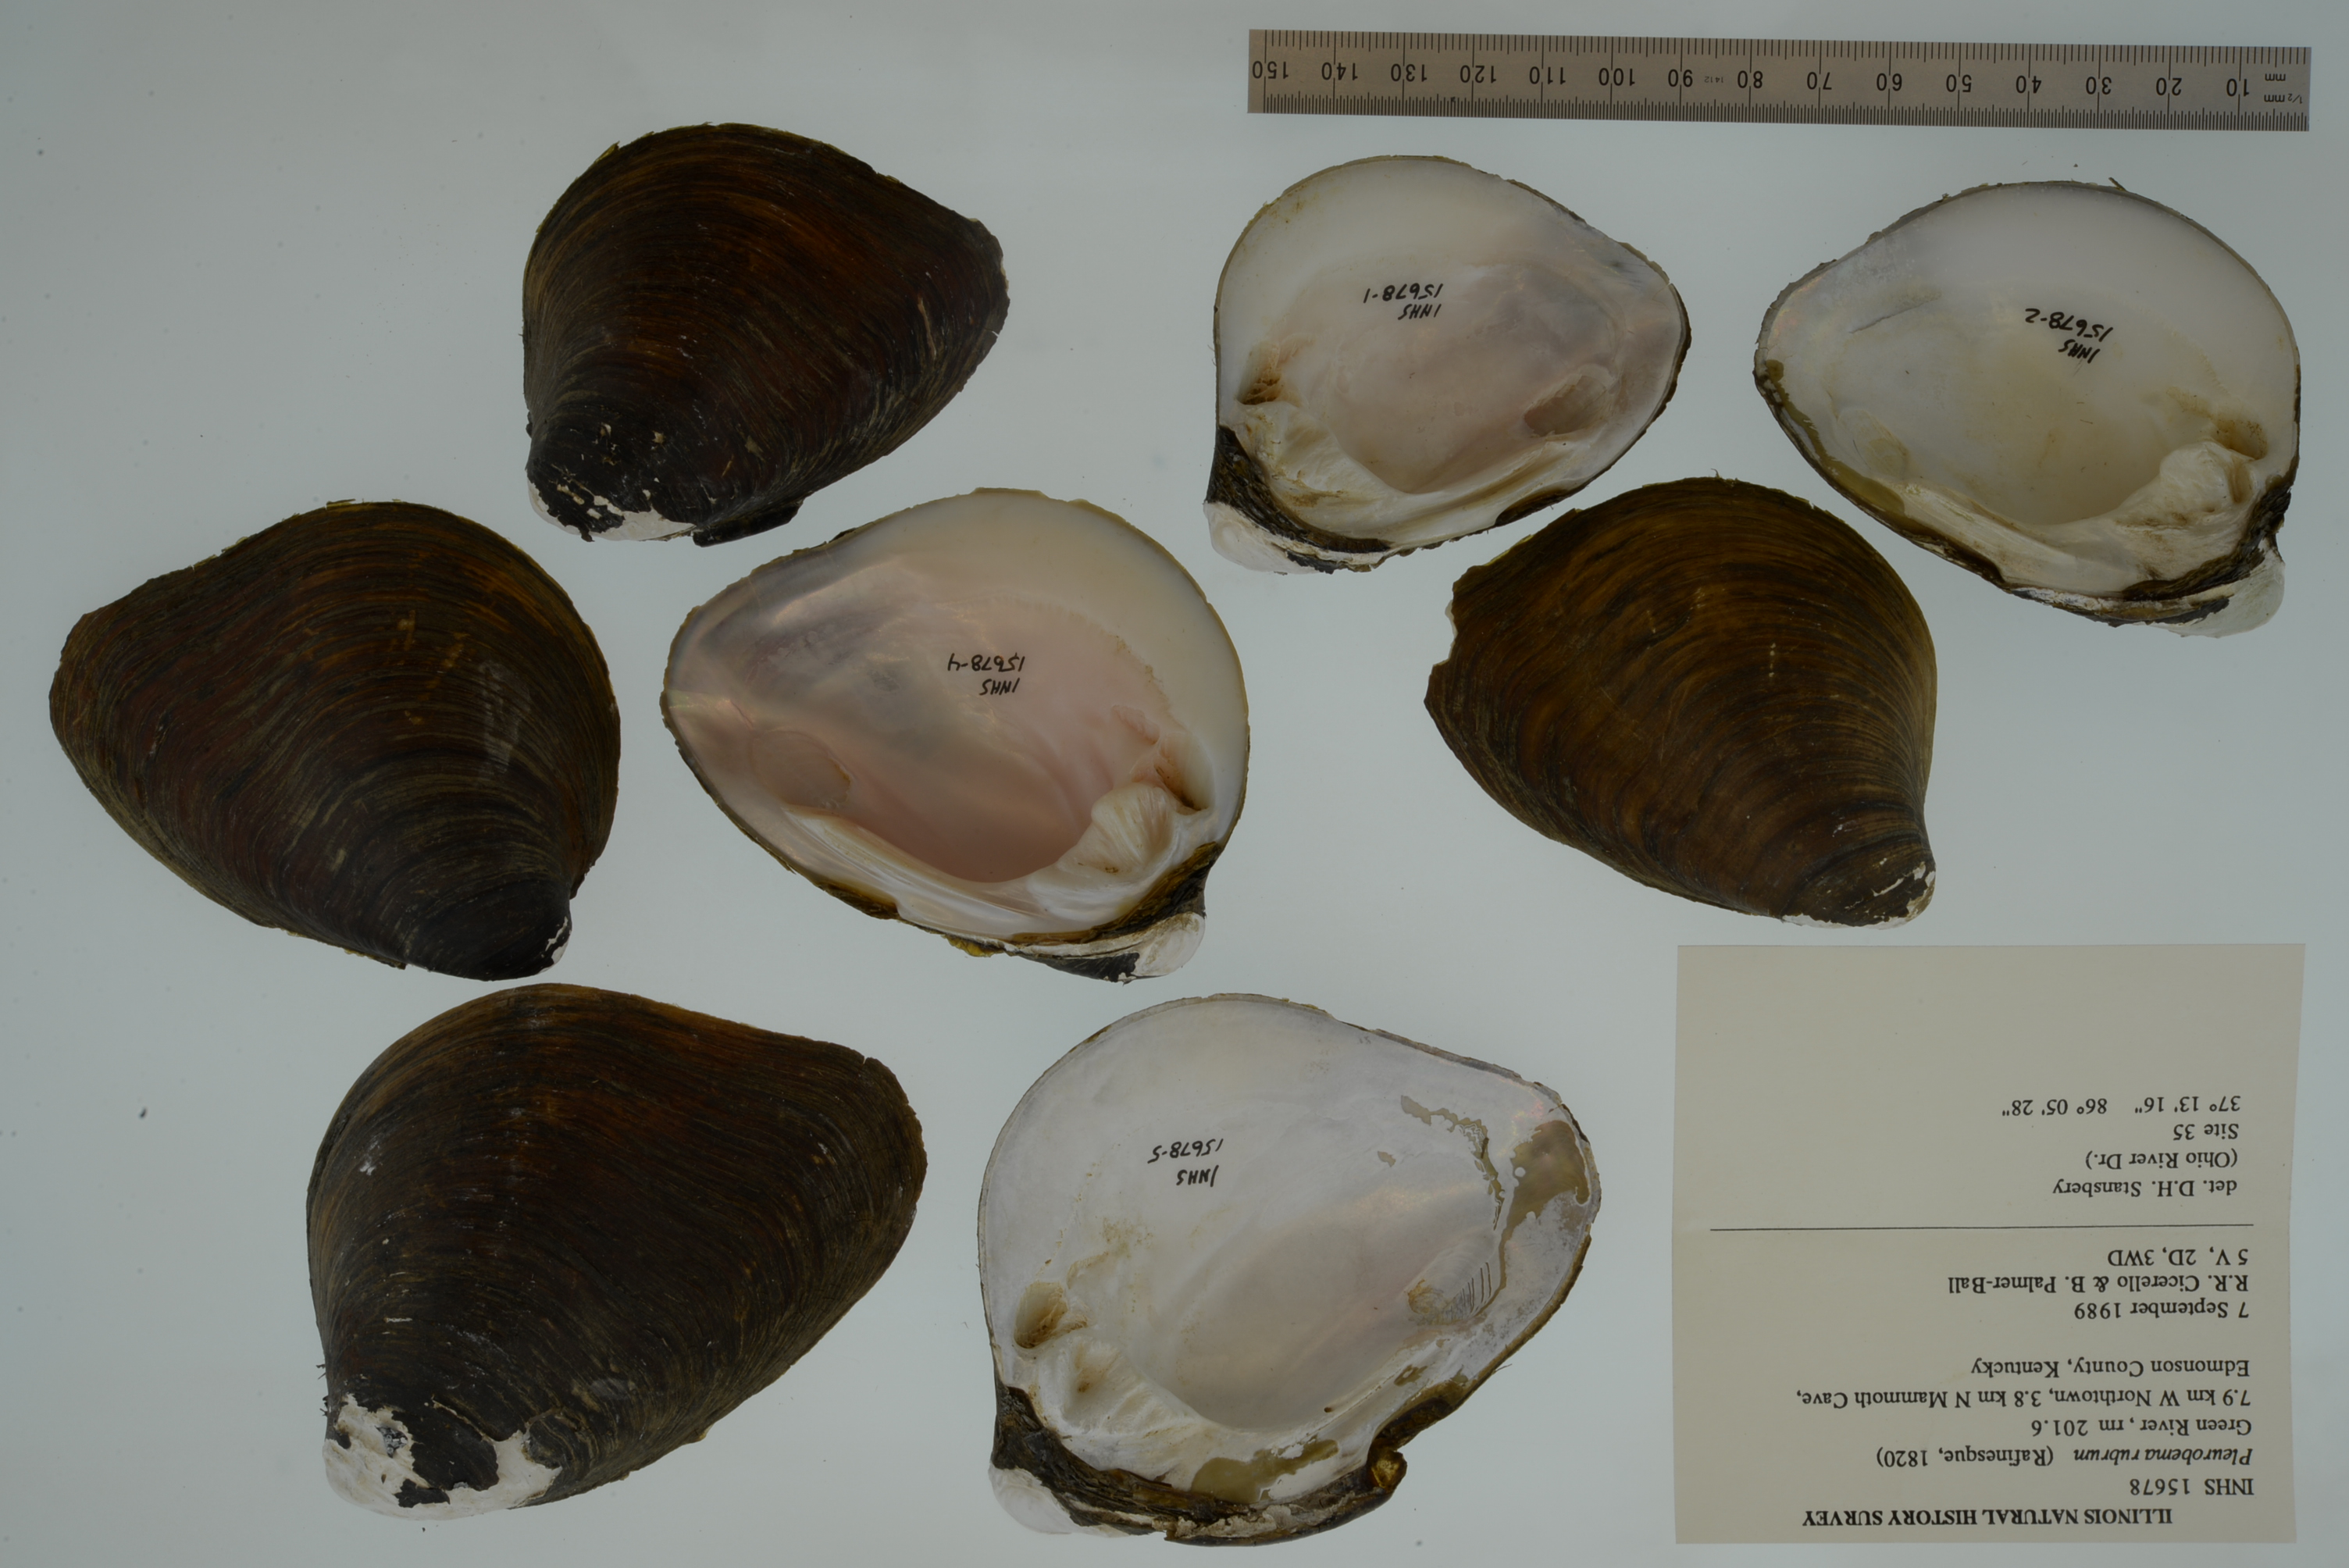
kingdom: Animalia
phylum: Mollusca
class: Bivalvia
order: Unionida
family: Unionidae
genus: Pleurobema
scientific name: Pleurobema rubrum
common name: Pyramid pigtoe
